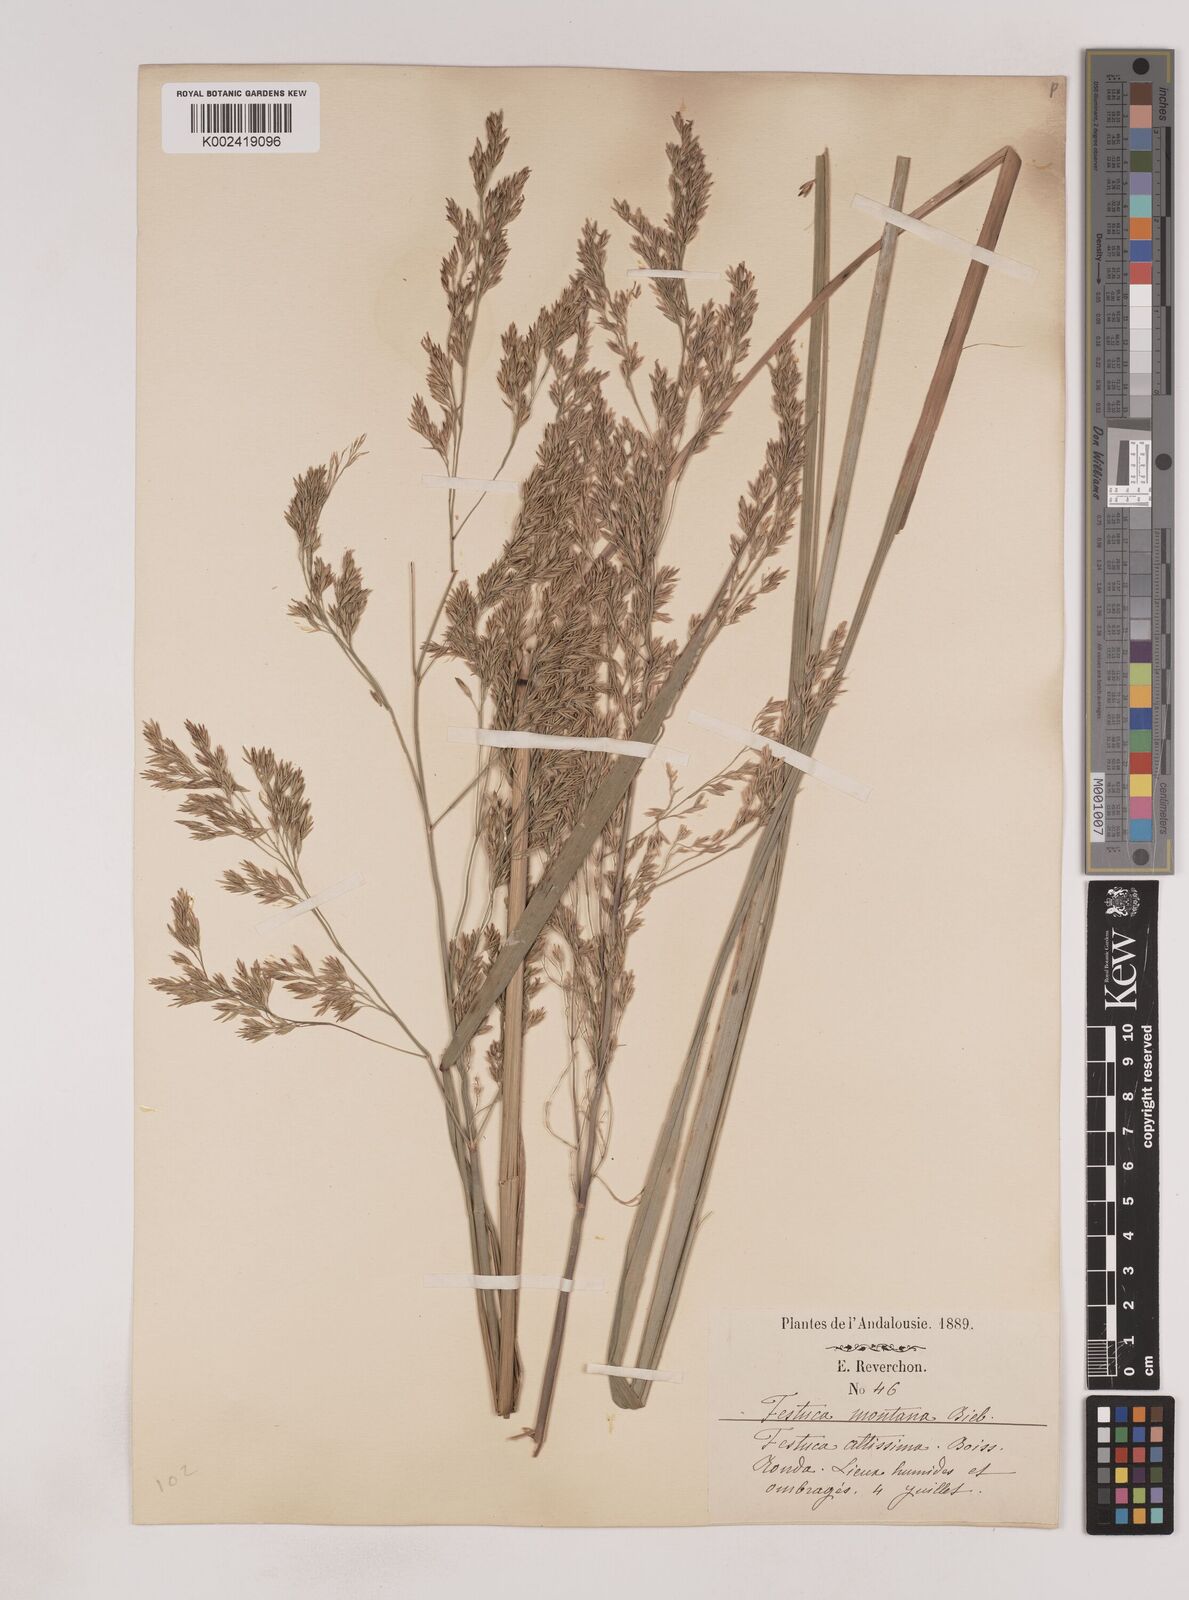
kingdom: Plantae
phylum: Tracheophyta
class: Liliopsida
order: Poales
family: Poaceae
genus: Festuca
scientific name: Festuca drymeja
